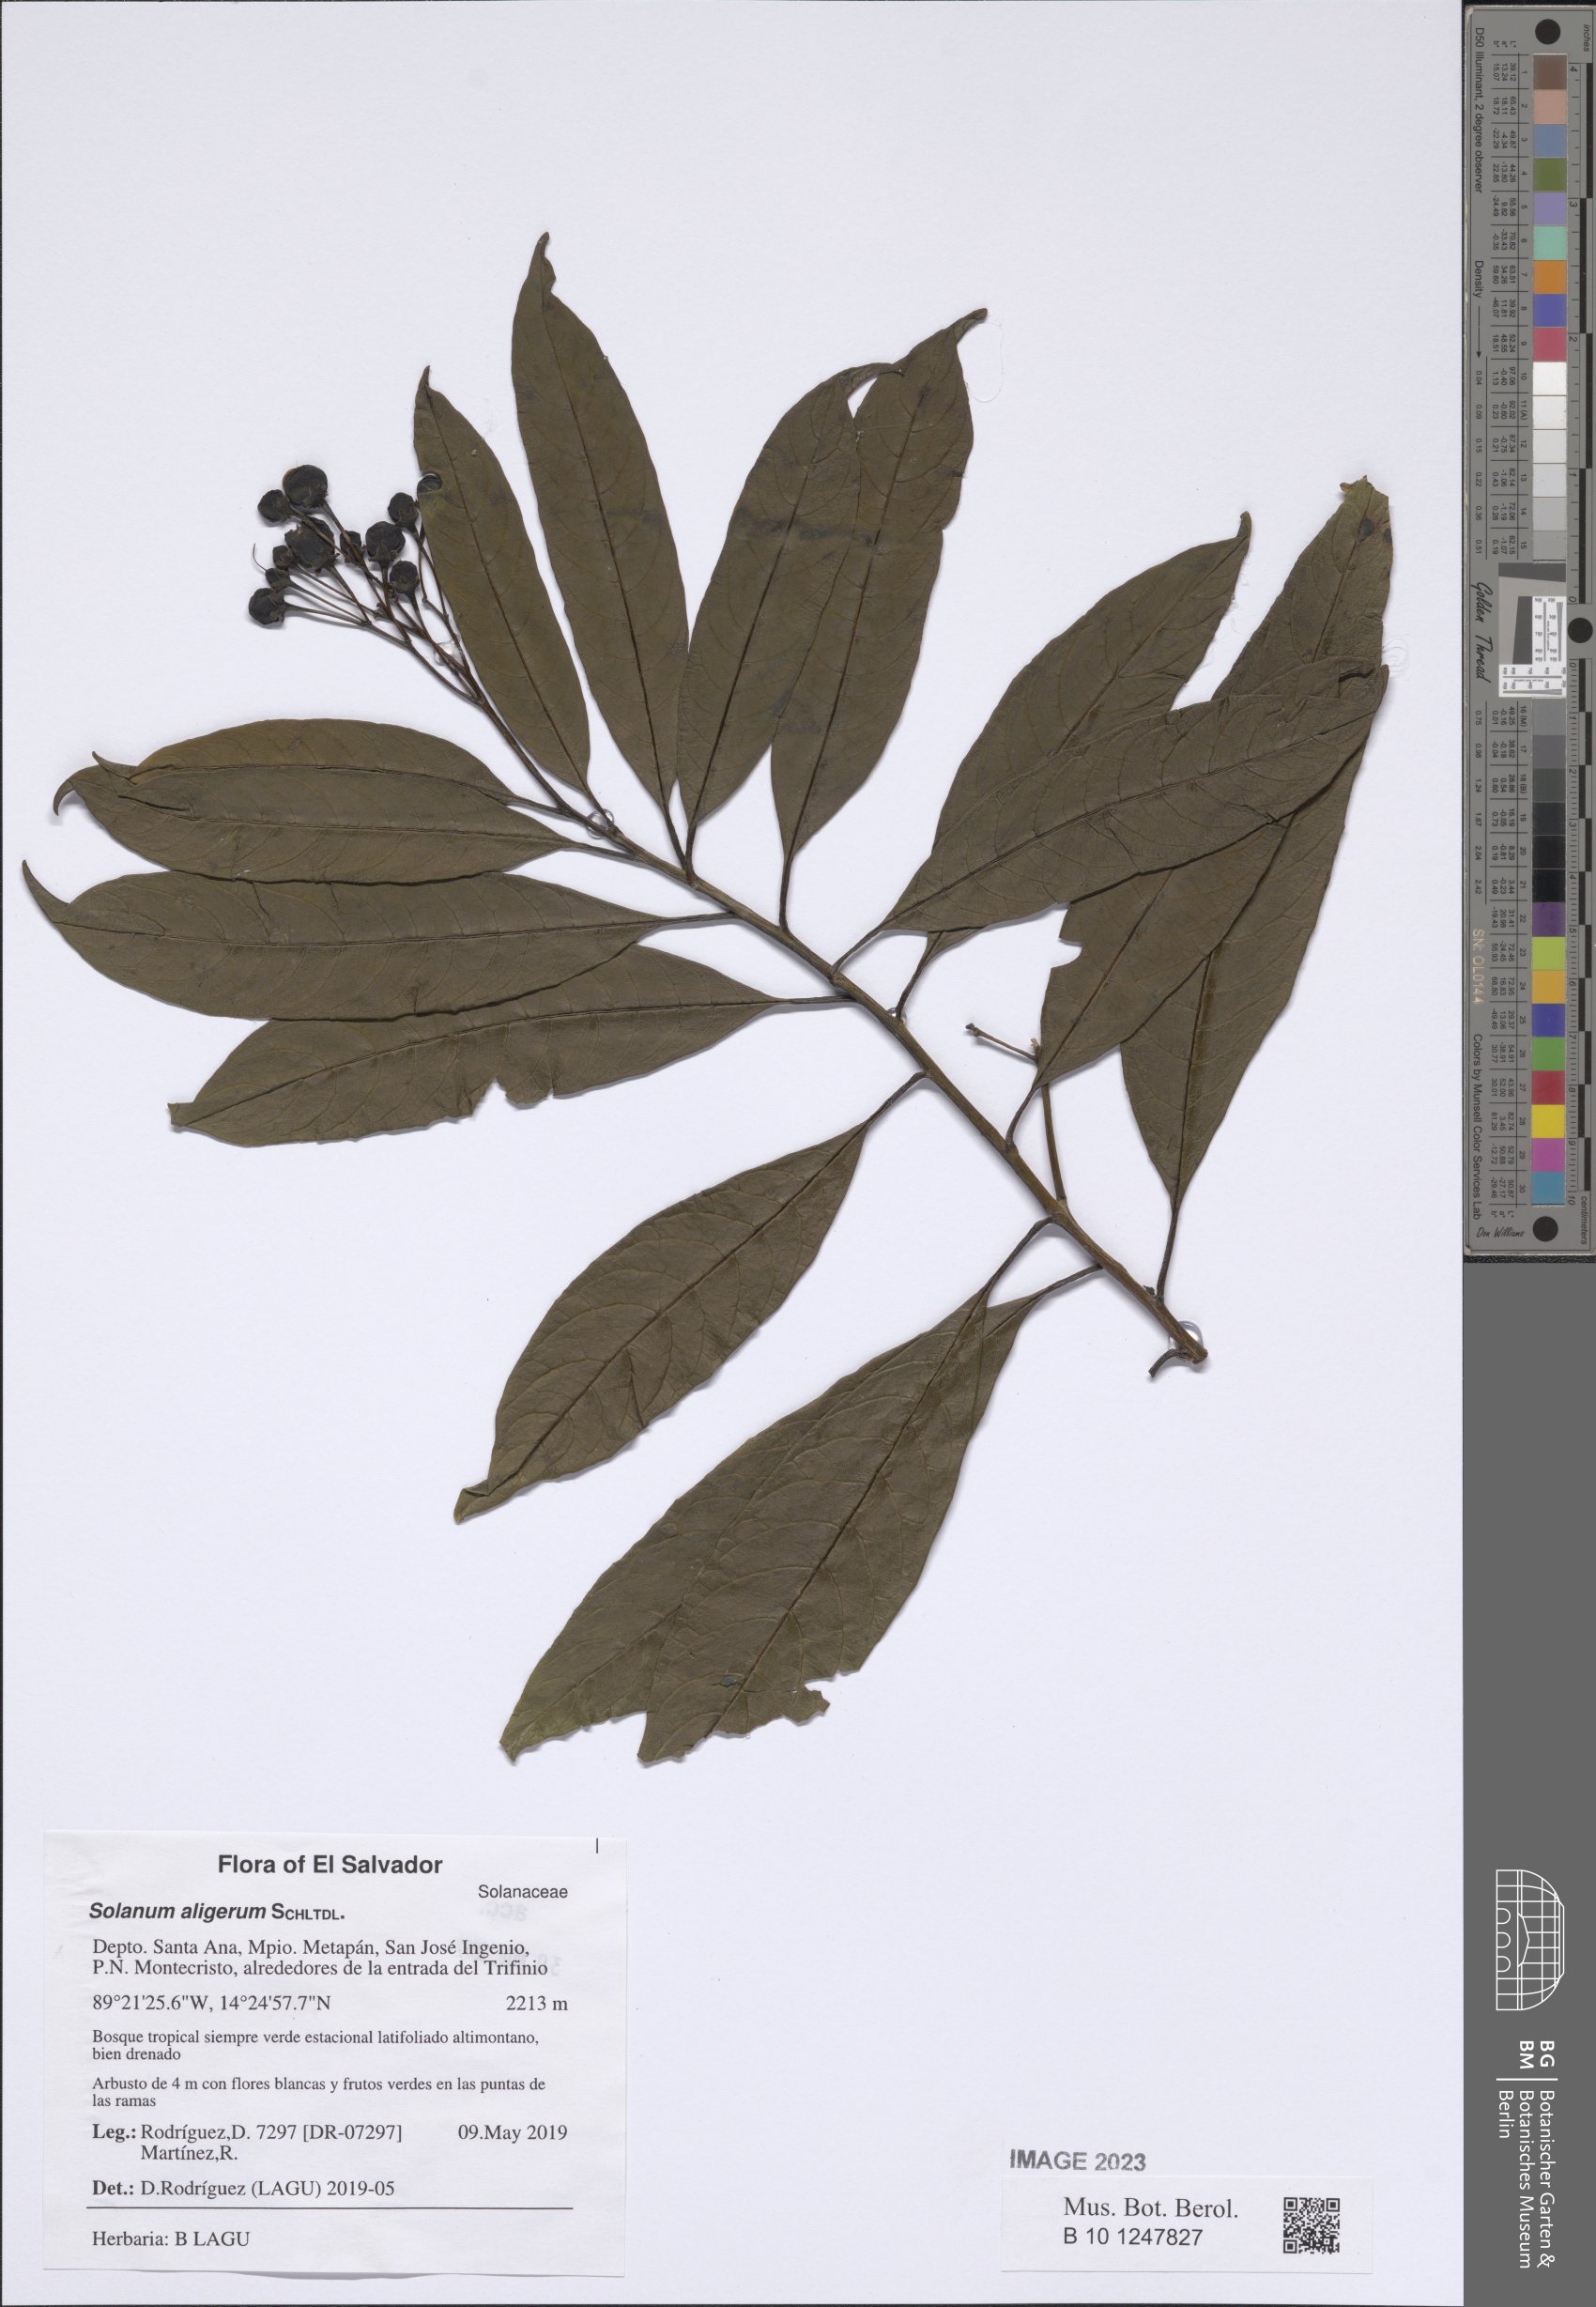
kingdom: Plantae
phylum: Tracheophyta
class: Magnoliopsida
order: Solanales
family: Solanaceae
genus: Solanum
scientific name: Solanum aligerum
